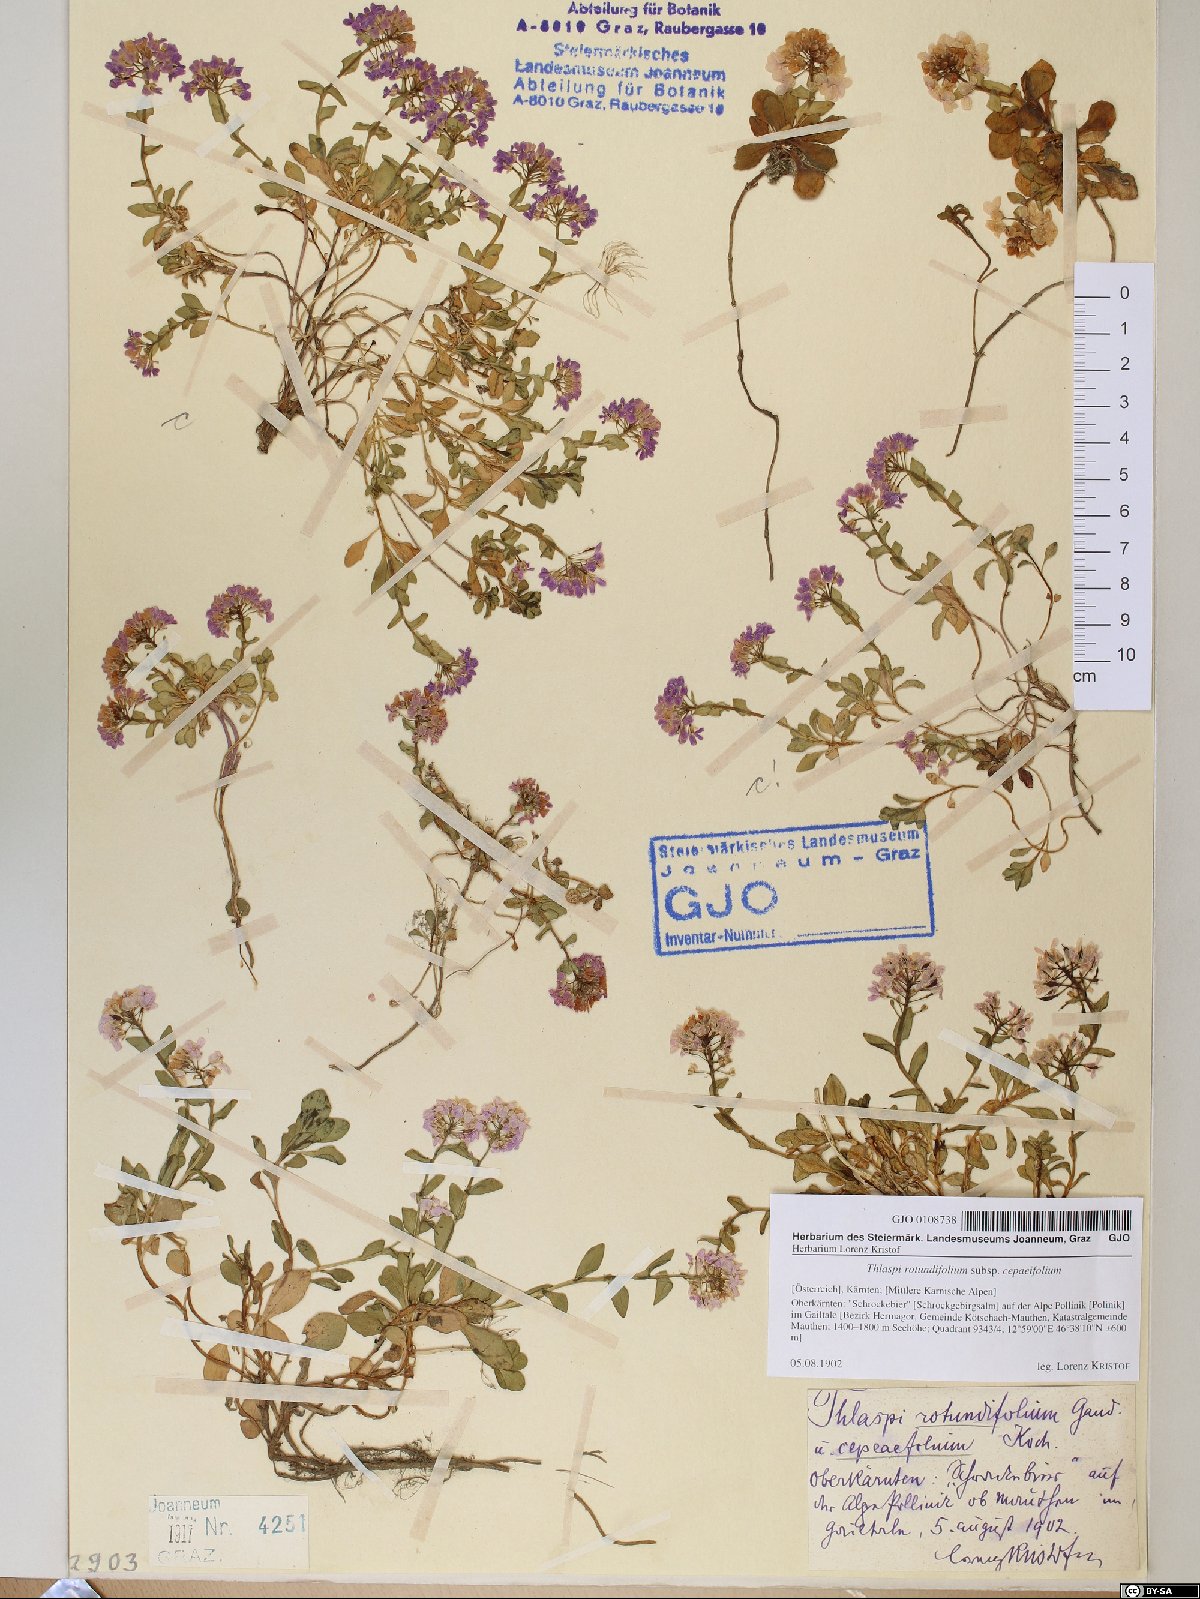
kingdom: Plantae
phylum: Tracheophyta
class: Magnoliopsida
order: Brassicales
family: Brassicaceae
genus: Noccaea
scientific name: Noccaea cepaeifolia
